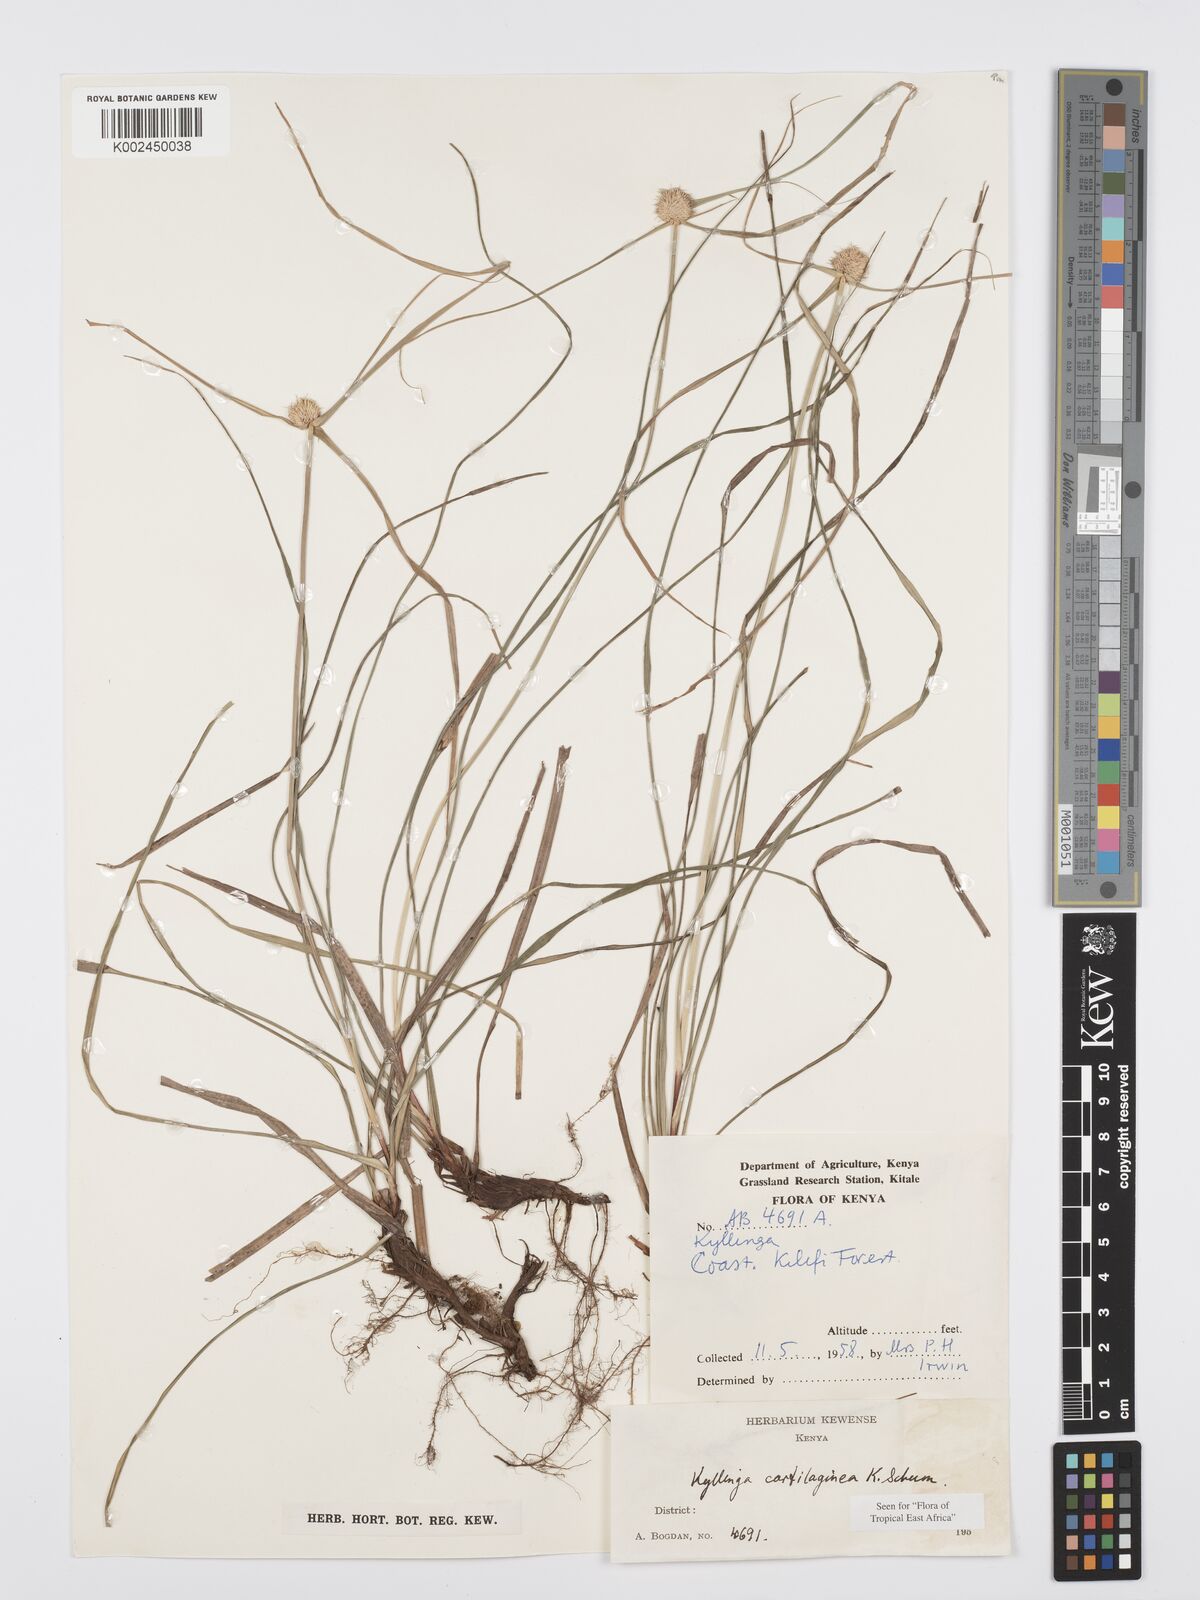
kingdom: Plantae
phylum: Tracheophyta
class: Liliopsida
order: Poales
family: Cyperaceae
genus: Cyperus
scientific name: Cyperus cartilagineus
